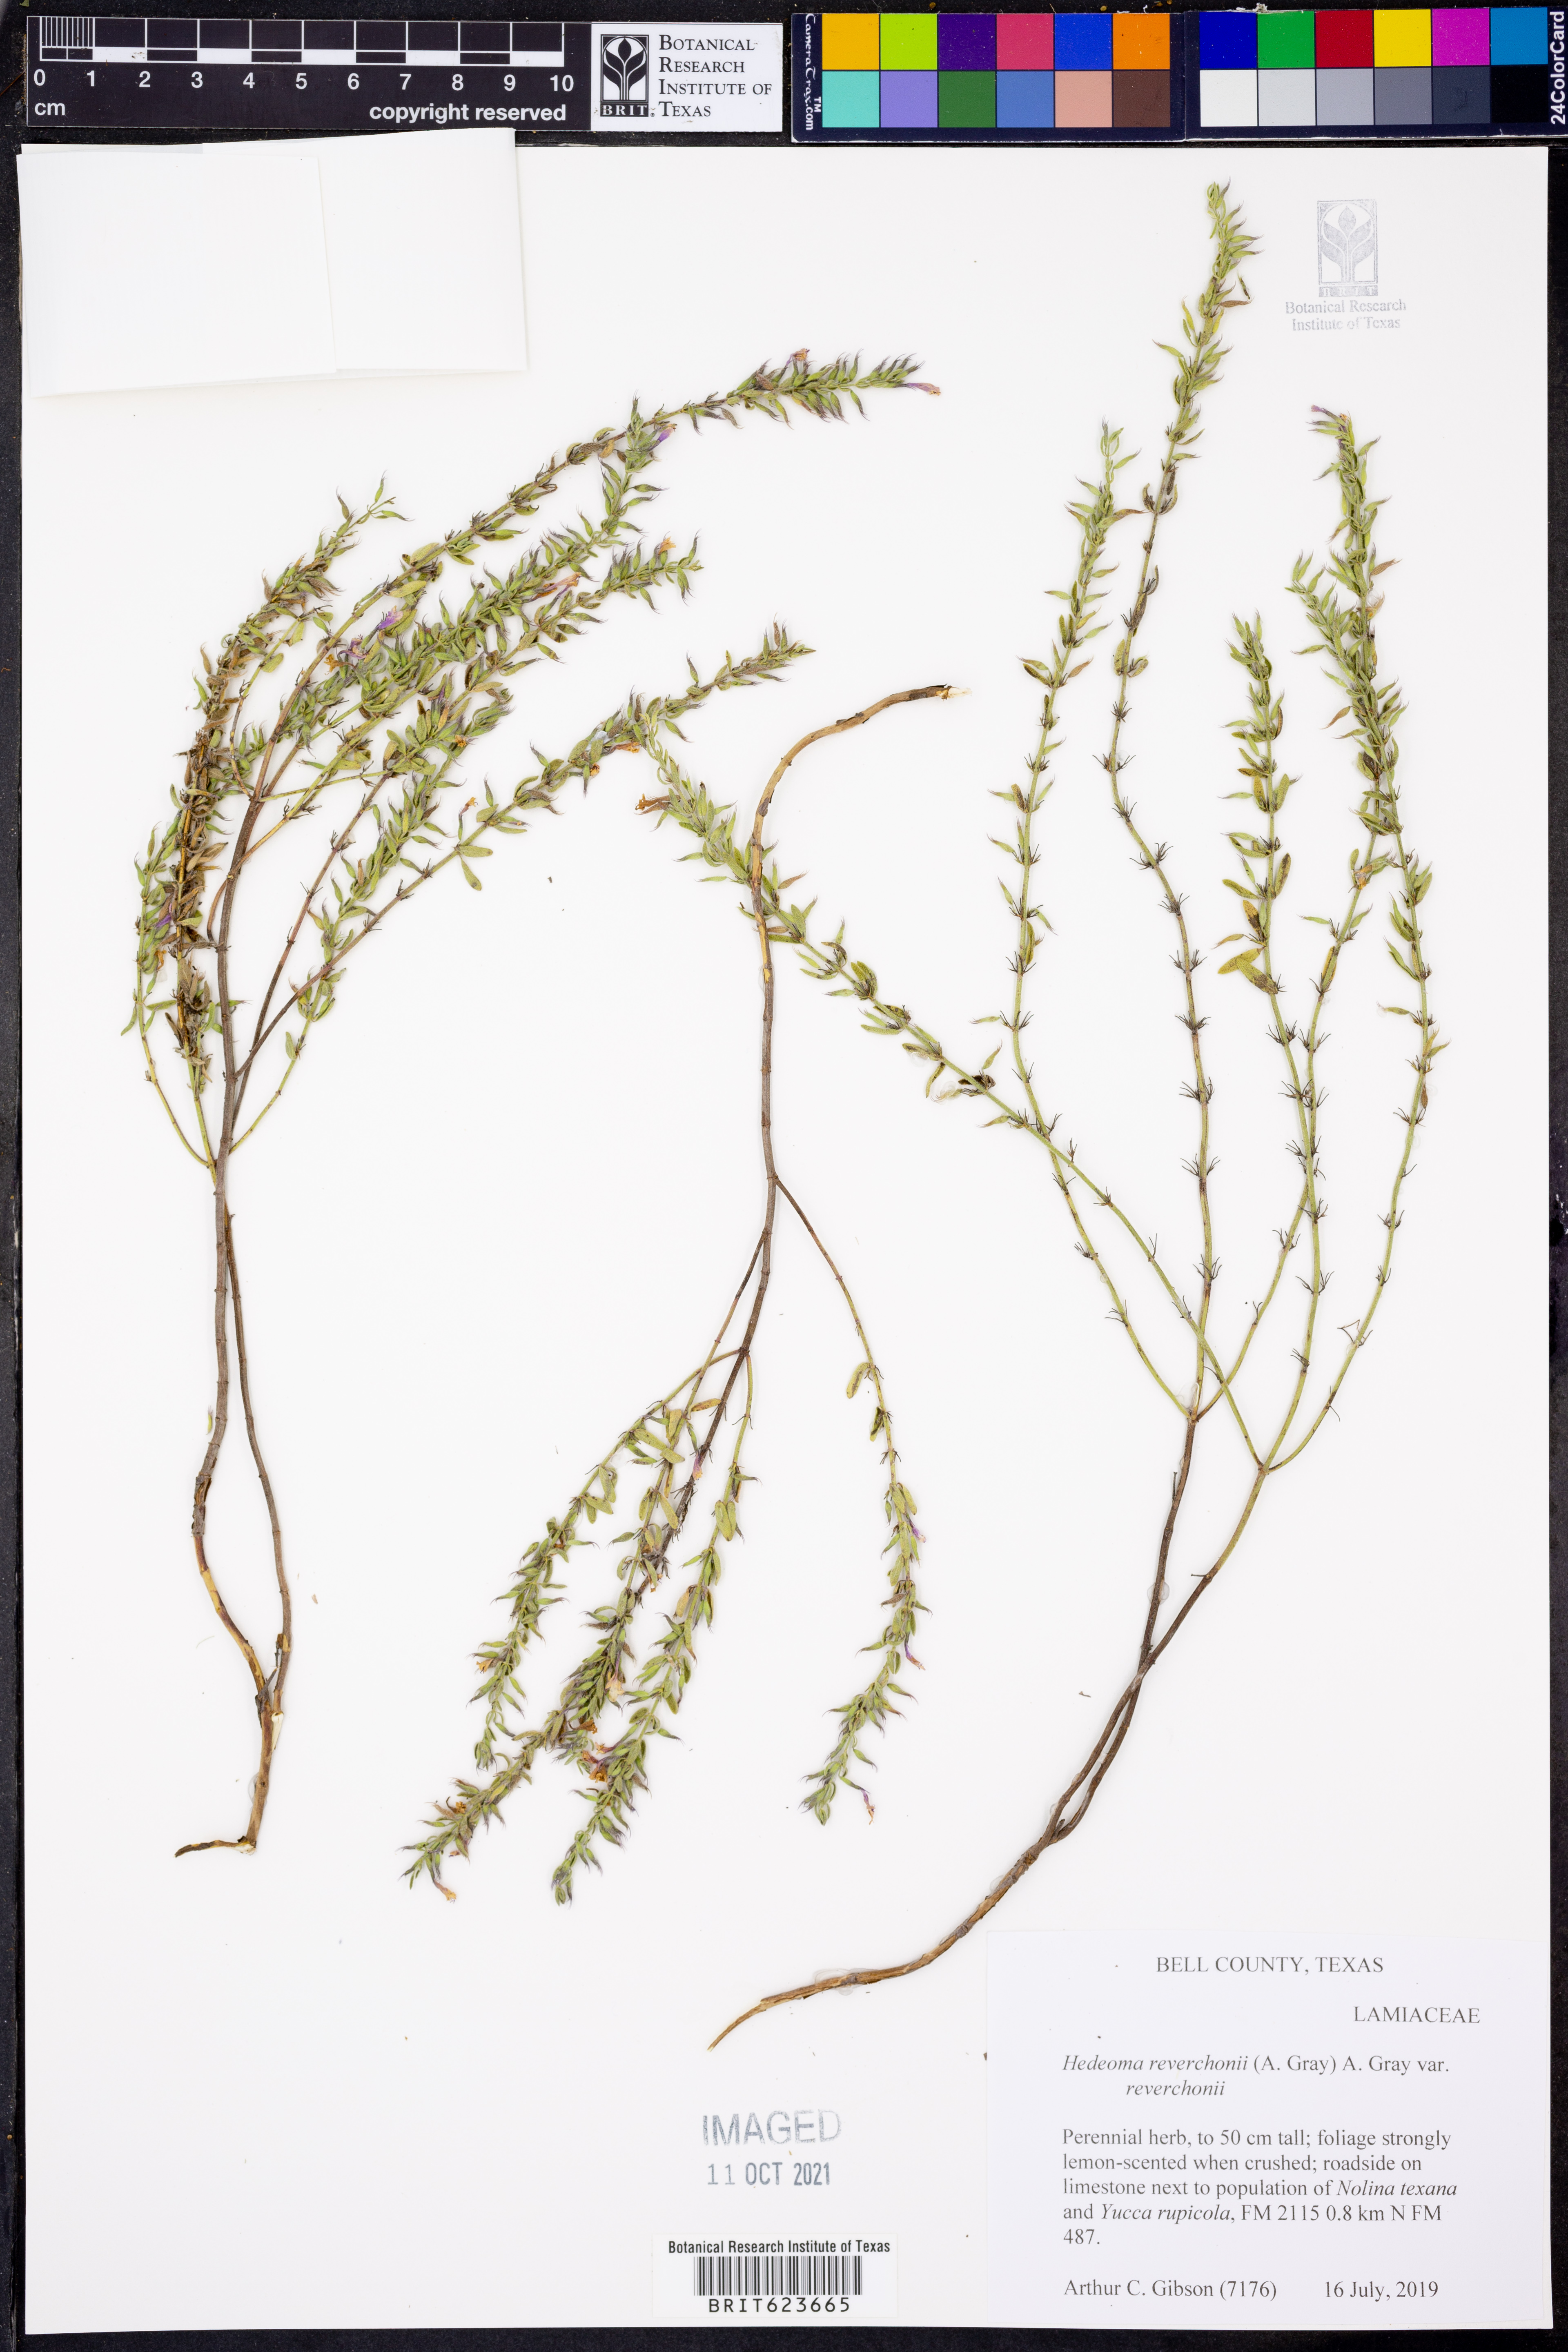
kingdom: Plantae
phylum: Tracheophyta
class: Magnoliopsida
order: Lamiales
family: Lamiaceae
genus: Hedeoma
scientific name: Hedeoma reverchonii
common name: Reverchon's false penny-royal
